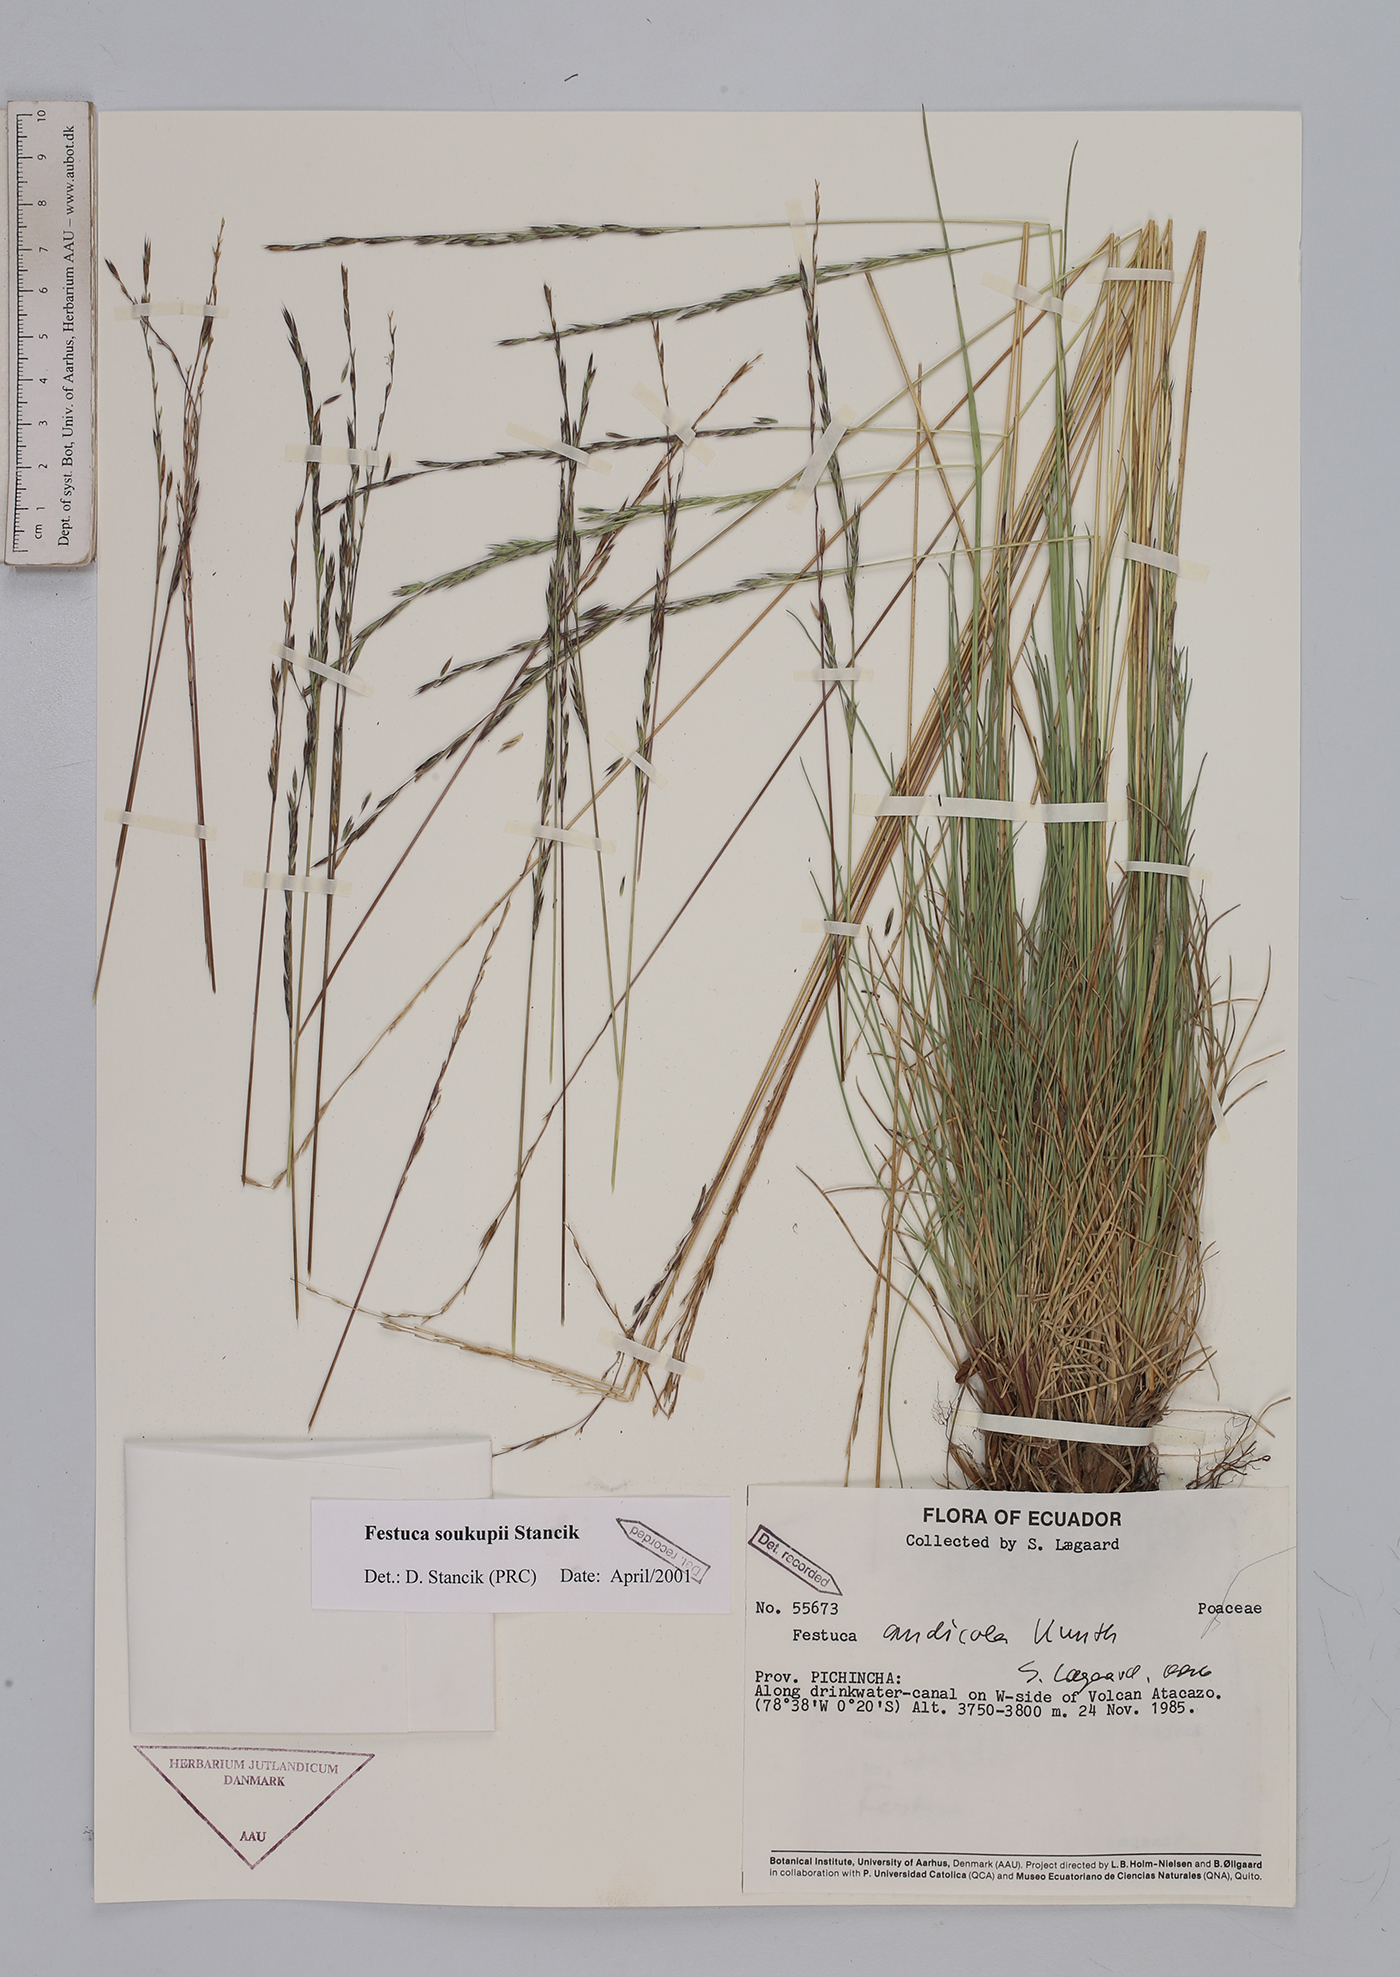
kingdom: Plantae
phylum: Tracheophyta
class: Liliopsida
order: Poales
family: Poaceae
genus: Festuca
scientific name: Festuca soukupii
